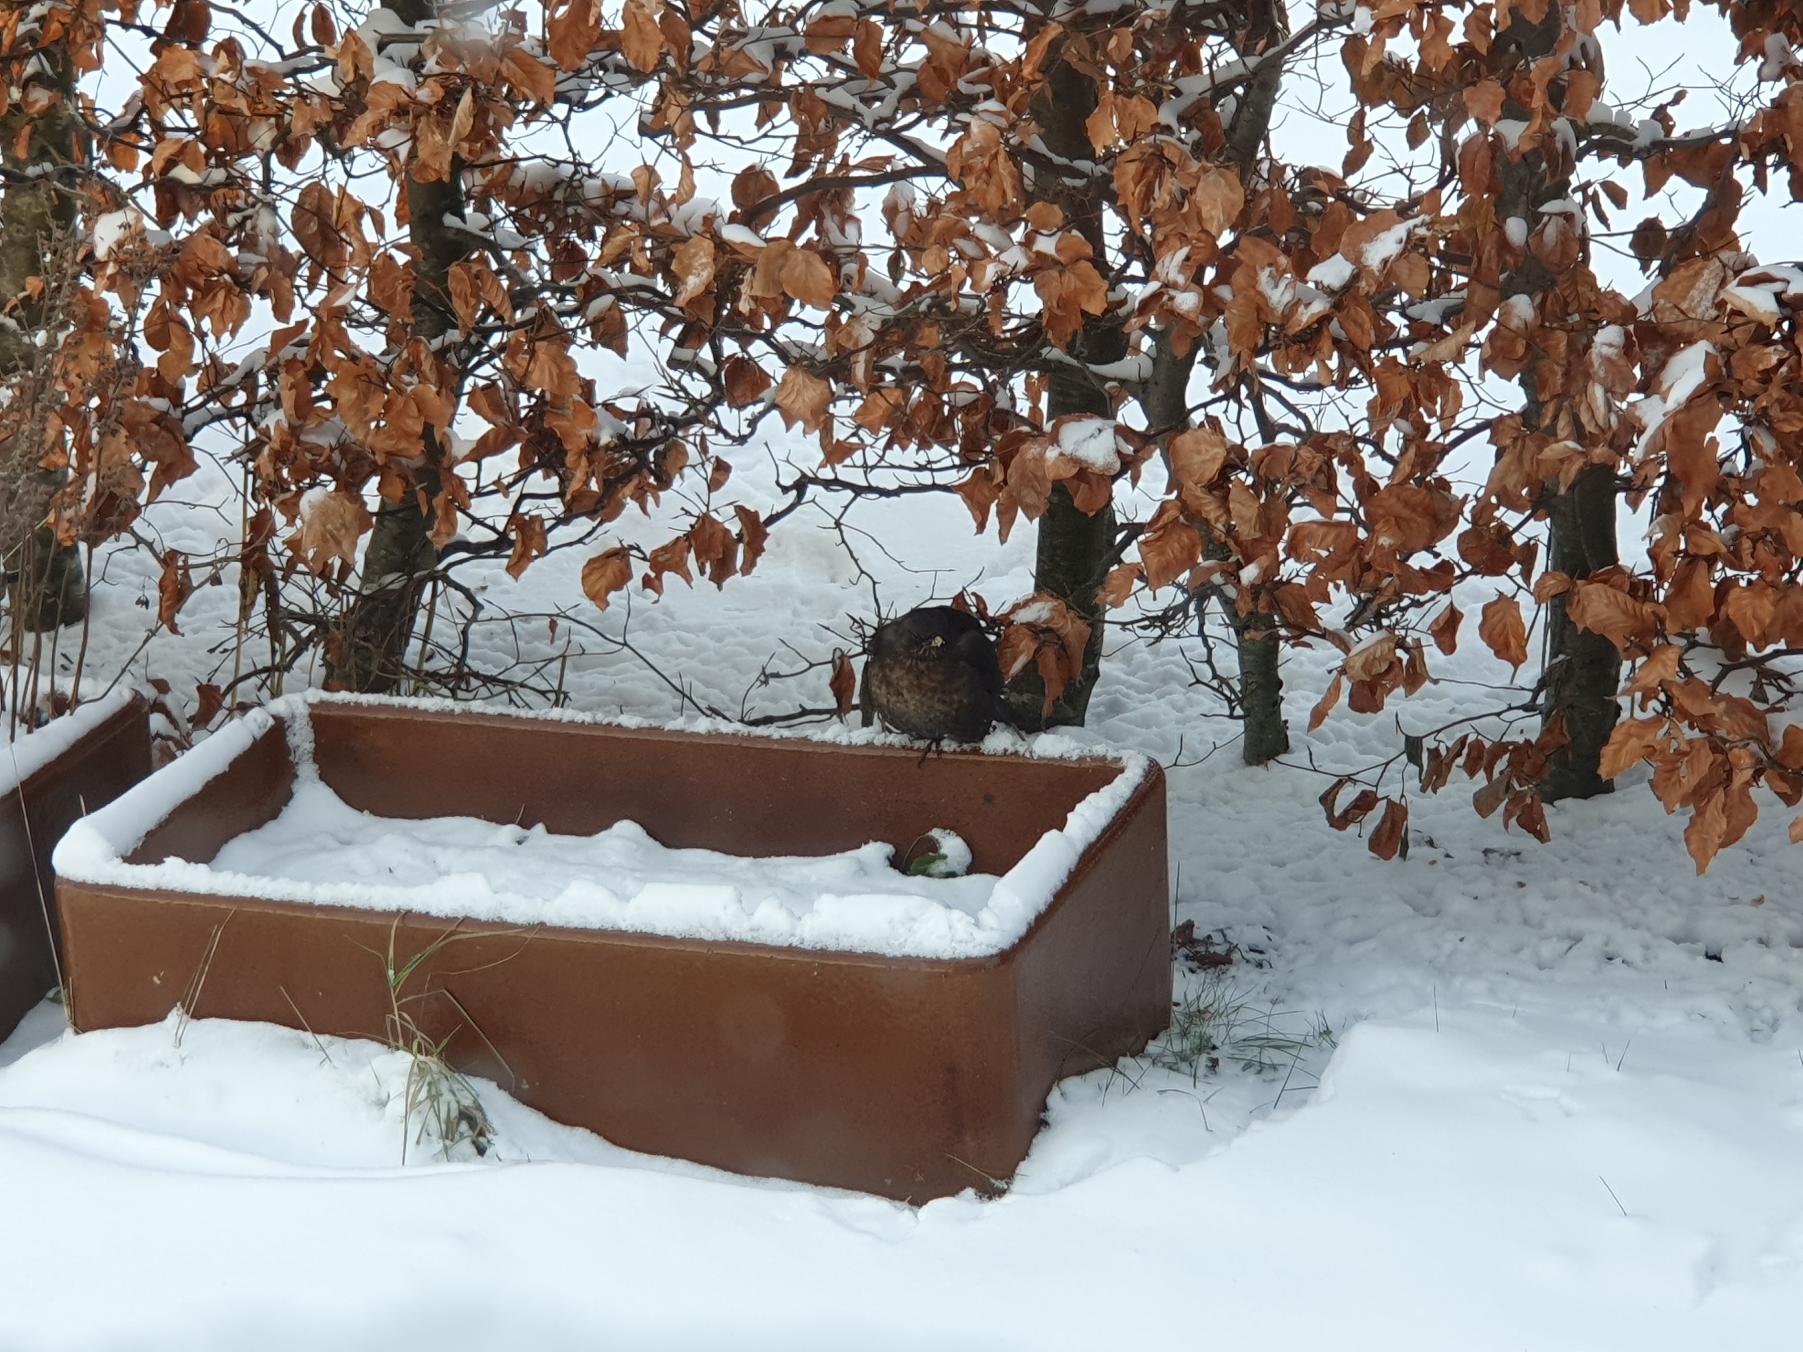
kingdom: Animalia
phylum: Chordata
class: Aves
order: Passeriformes
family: Turdidae
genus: Turdus
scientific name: Turdus merula
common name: Solsort
